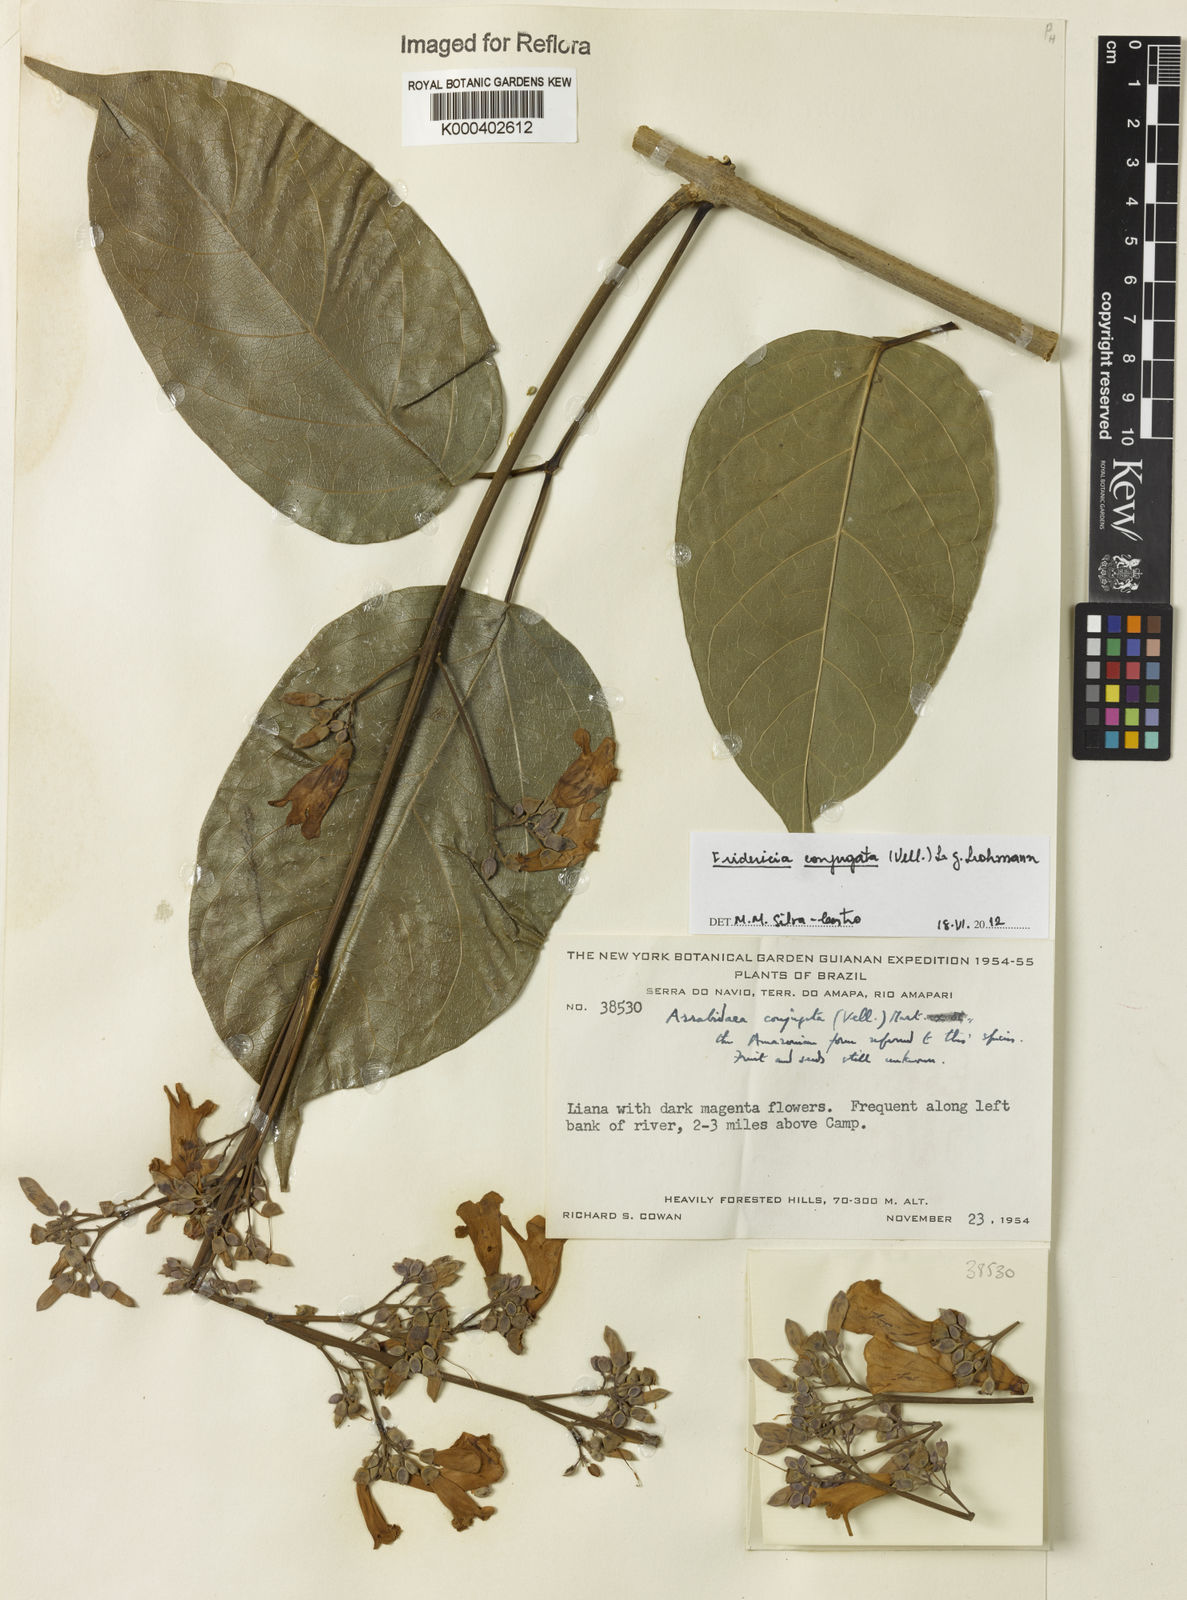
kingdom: Plantae
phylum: Tracheophyta
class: Magnoliopsida
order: Lamiales
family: Bignoniaceae
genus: Fridericia
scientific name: Fridericia conjugata
